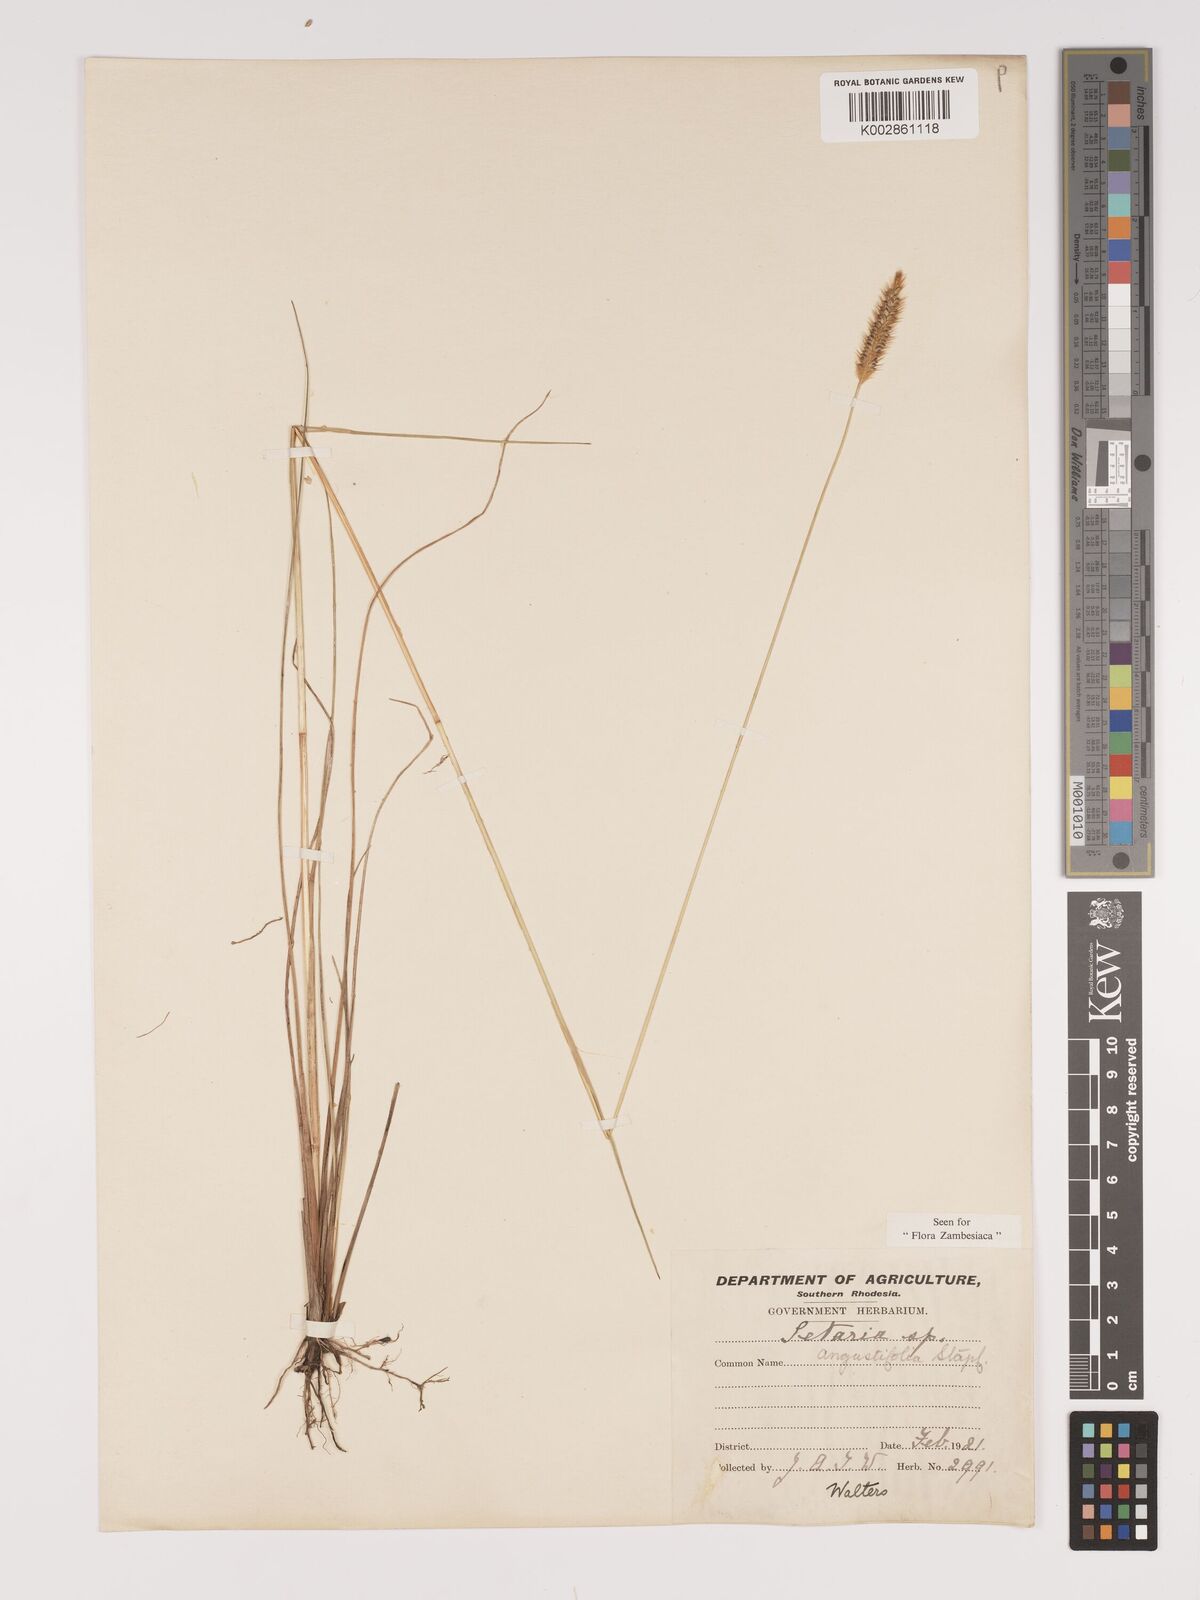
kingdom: Plantae
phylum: Tracheophyta
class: Liliopsida
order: Poales
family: Poaceae
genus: Setaria
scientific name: Setaria sphacelata
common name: African bristlegrass
